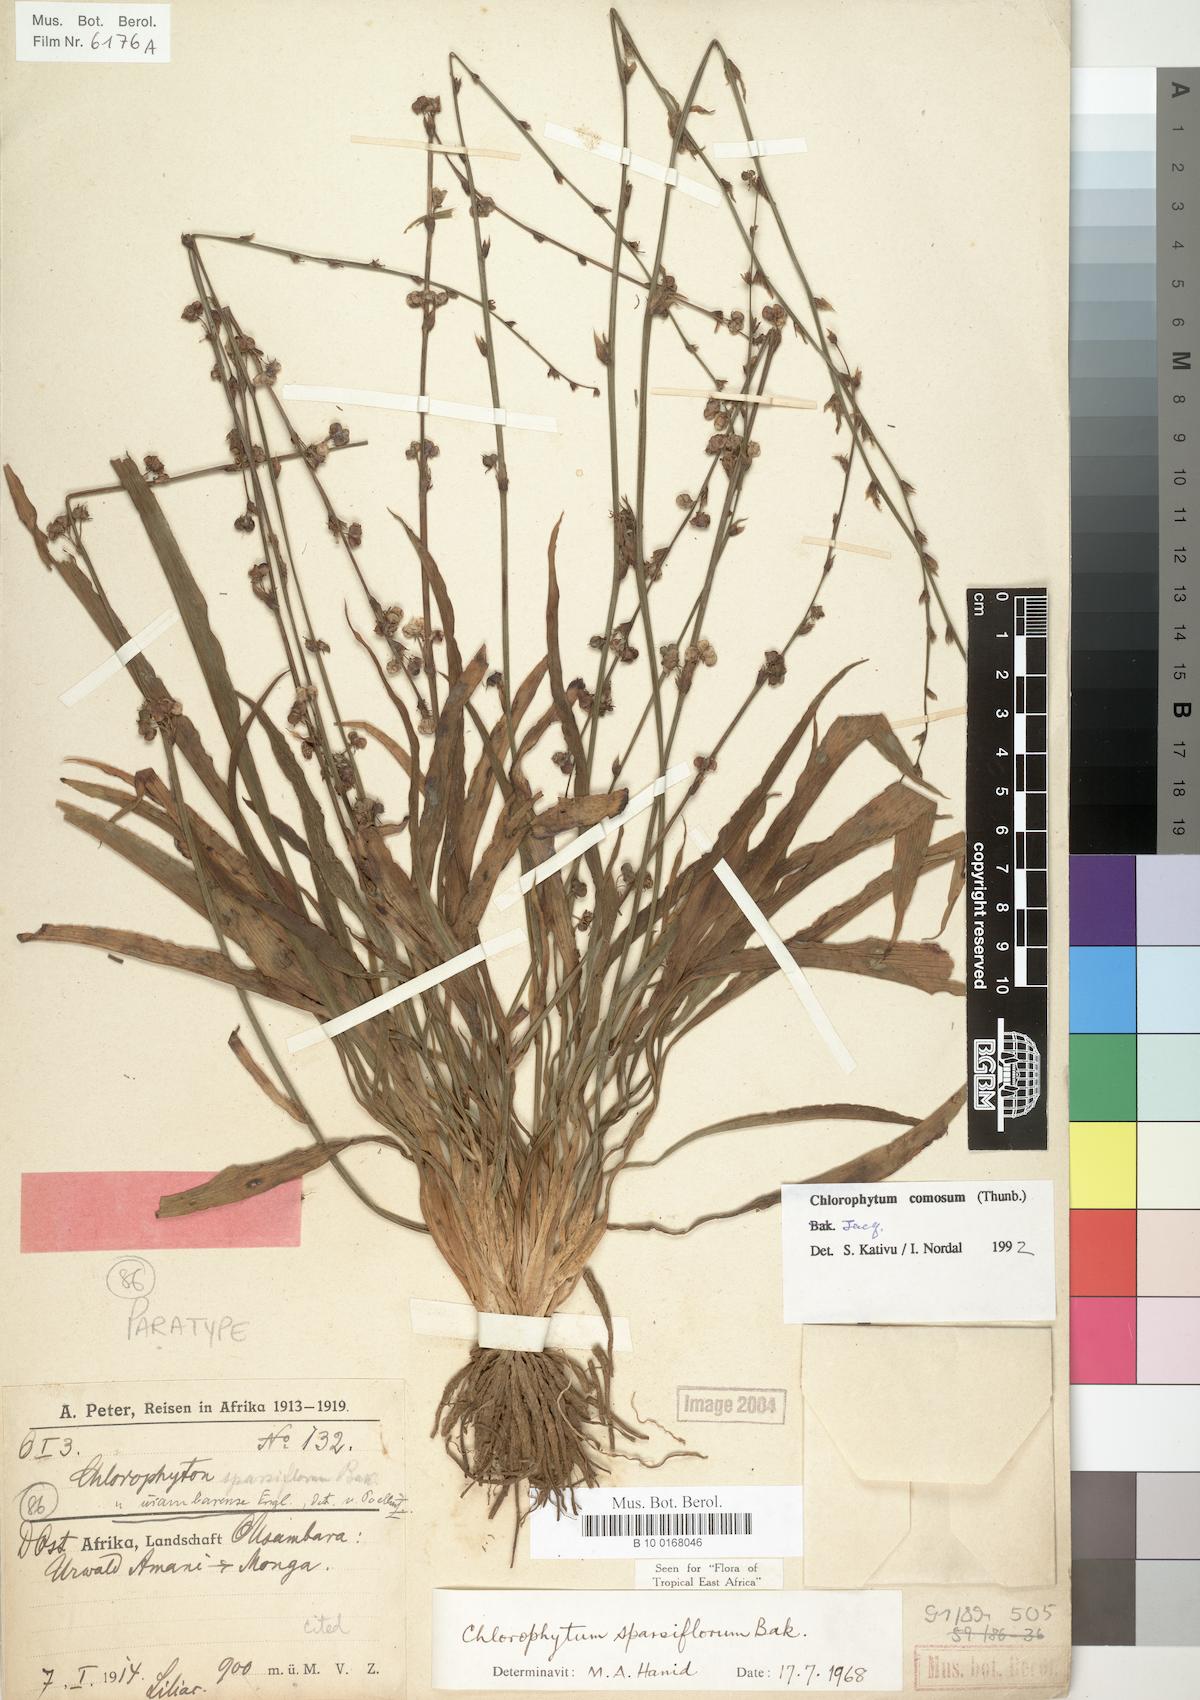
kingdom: Plantae
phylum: Tracheophyta
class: Liliopsida
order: Asparagales
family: Asparagaceae
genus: Chlorophytum
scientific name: Chlorophytum comosum
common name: Spider plant
